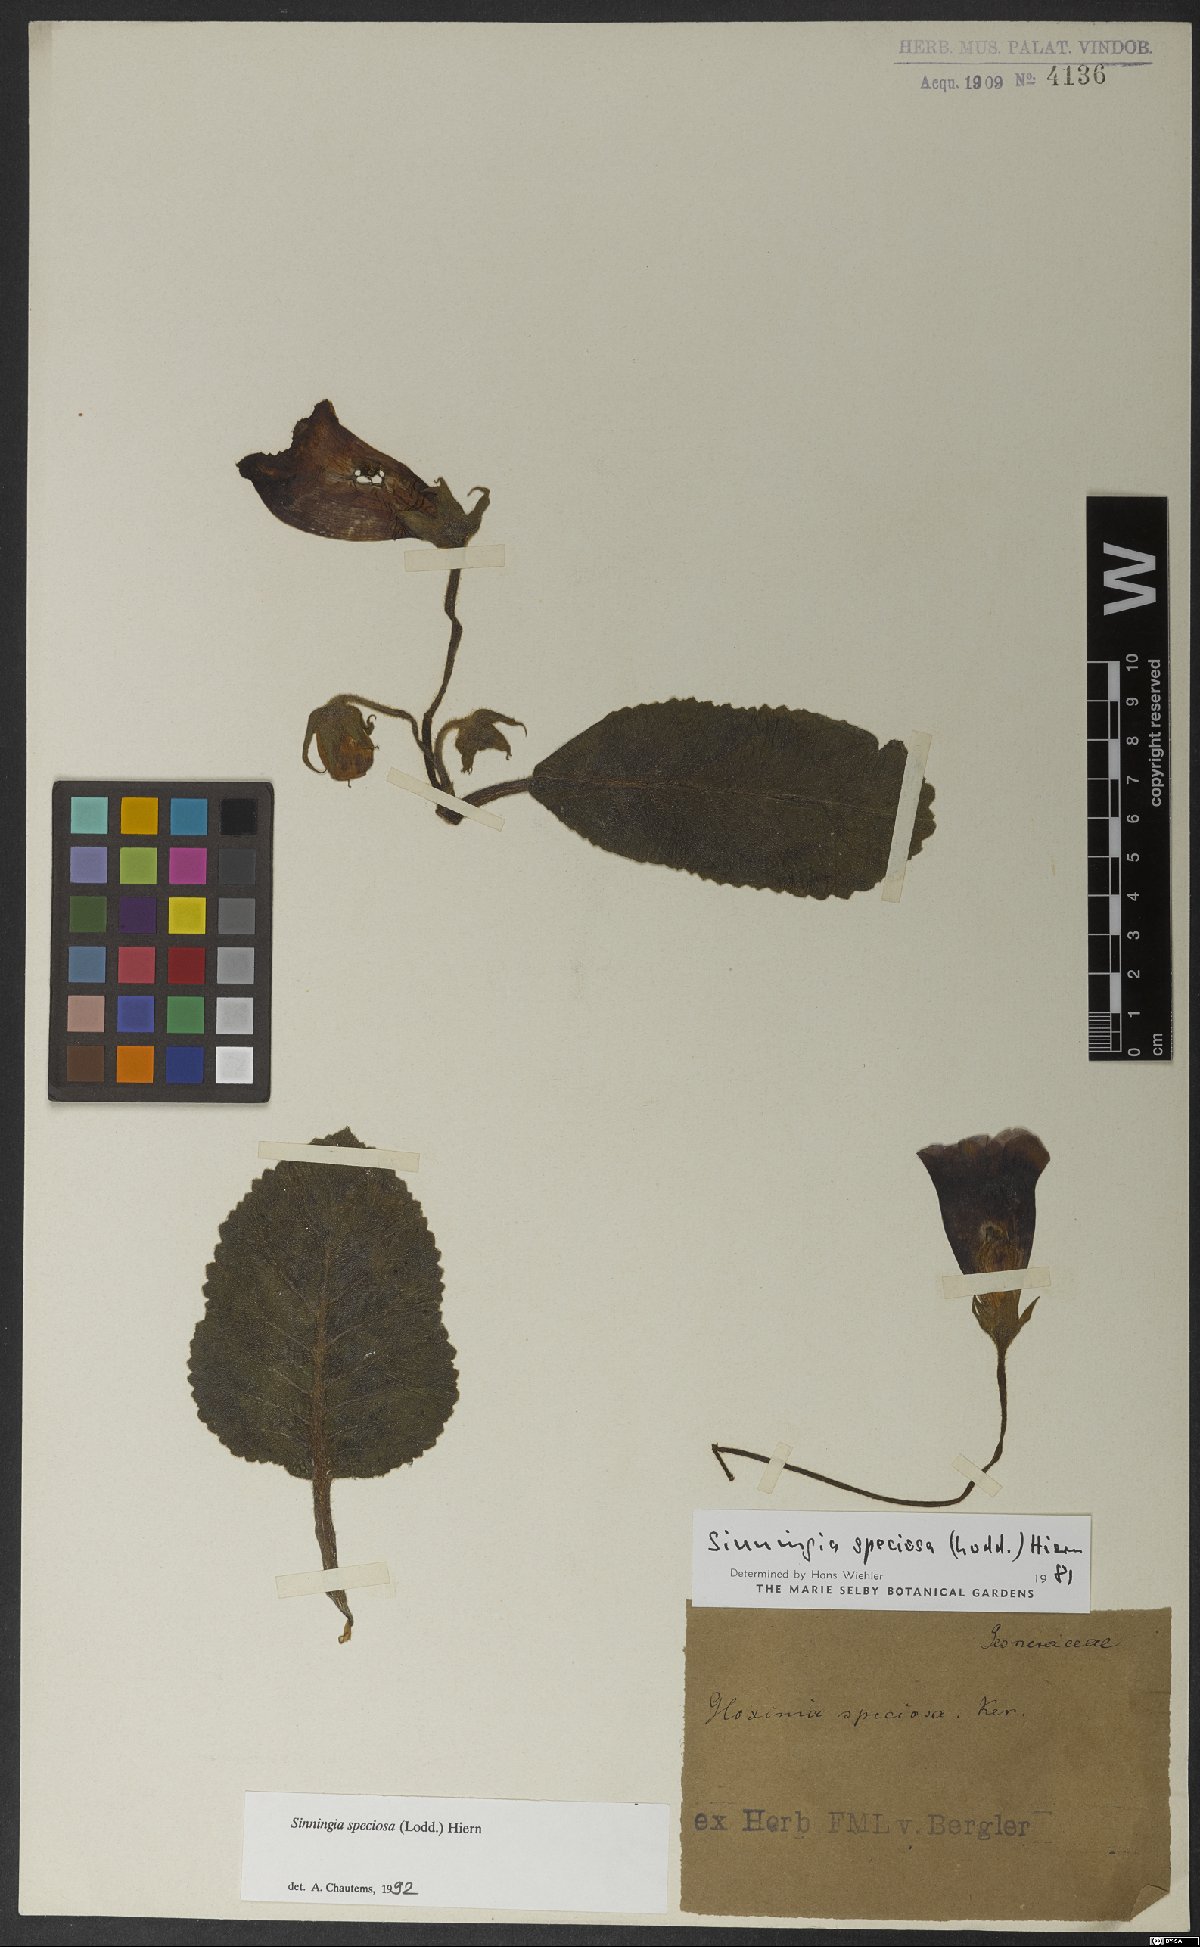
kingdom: Plantae
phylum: Tracheophyta
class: Magnoliopsida
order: Lamiales
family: Gesneriaceae
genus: Sinningia
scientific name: Sinningia speciosa
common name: Brazilian gloxinia
